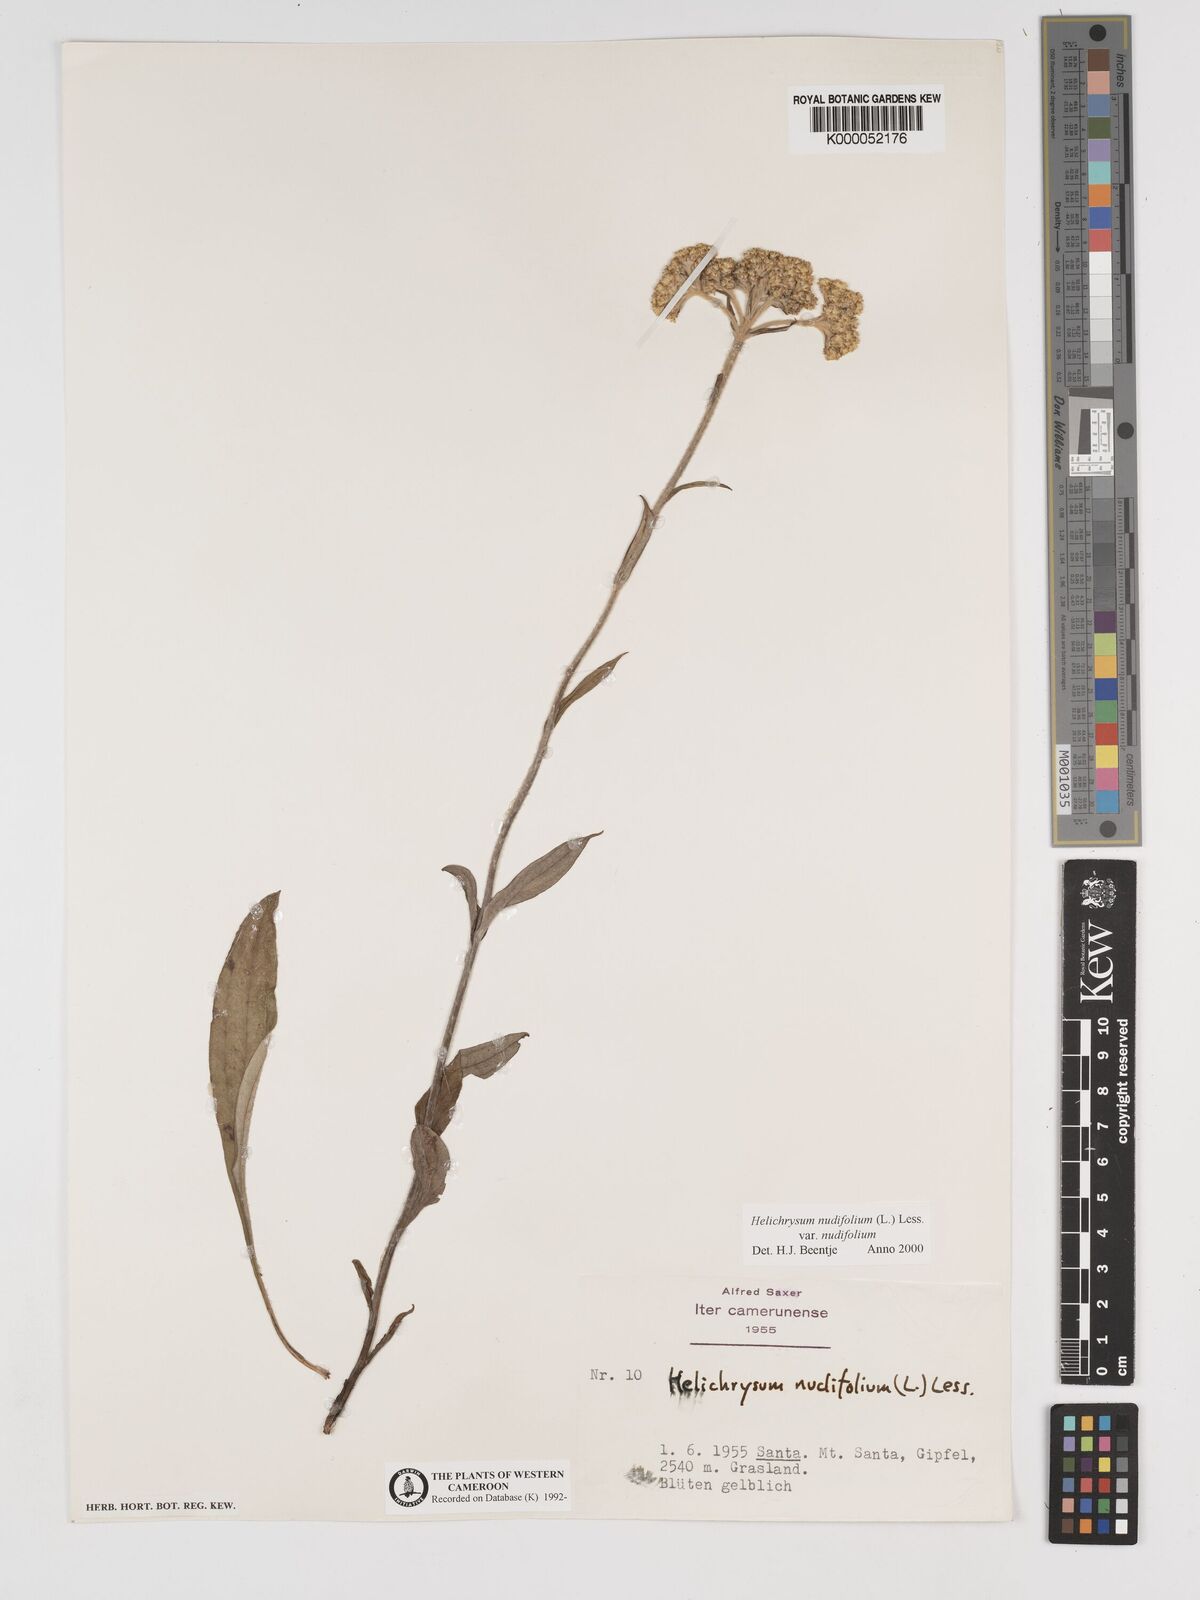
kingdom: Plantae
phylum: Tracheophyta
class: Magnoliopsida
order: Asterales
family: Asteraceae
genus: Helichrysum
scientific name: Helichrysum nudifolium
